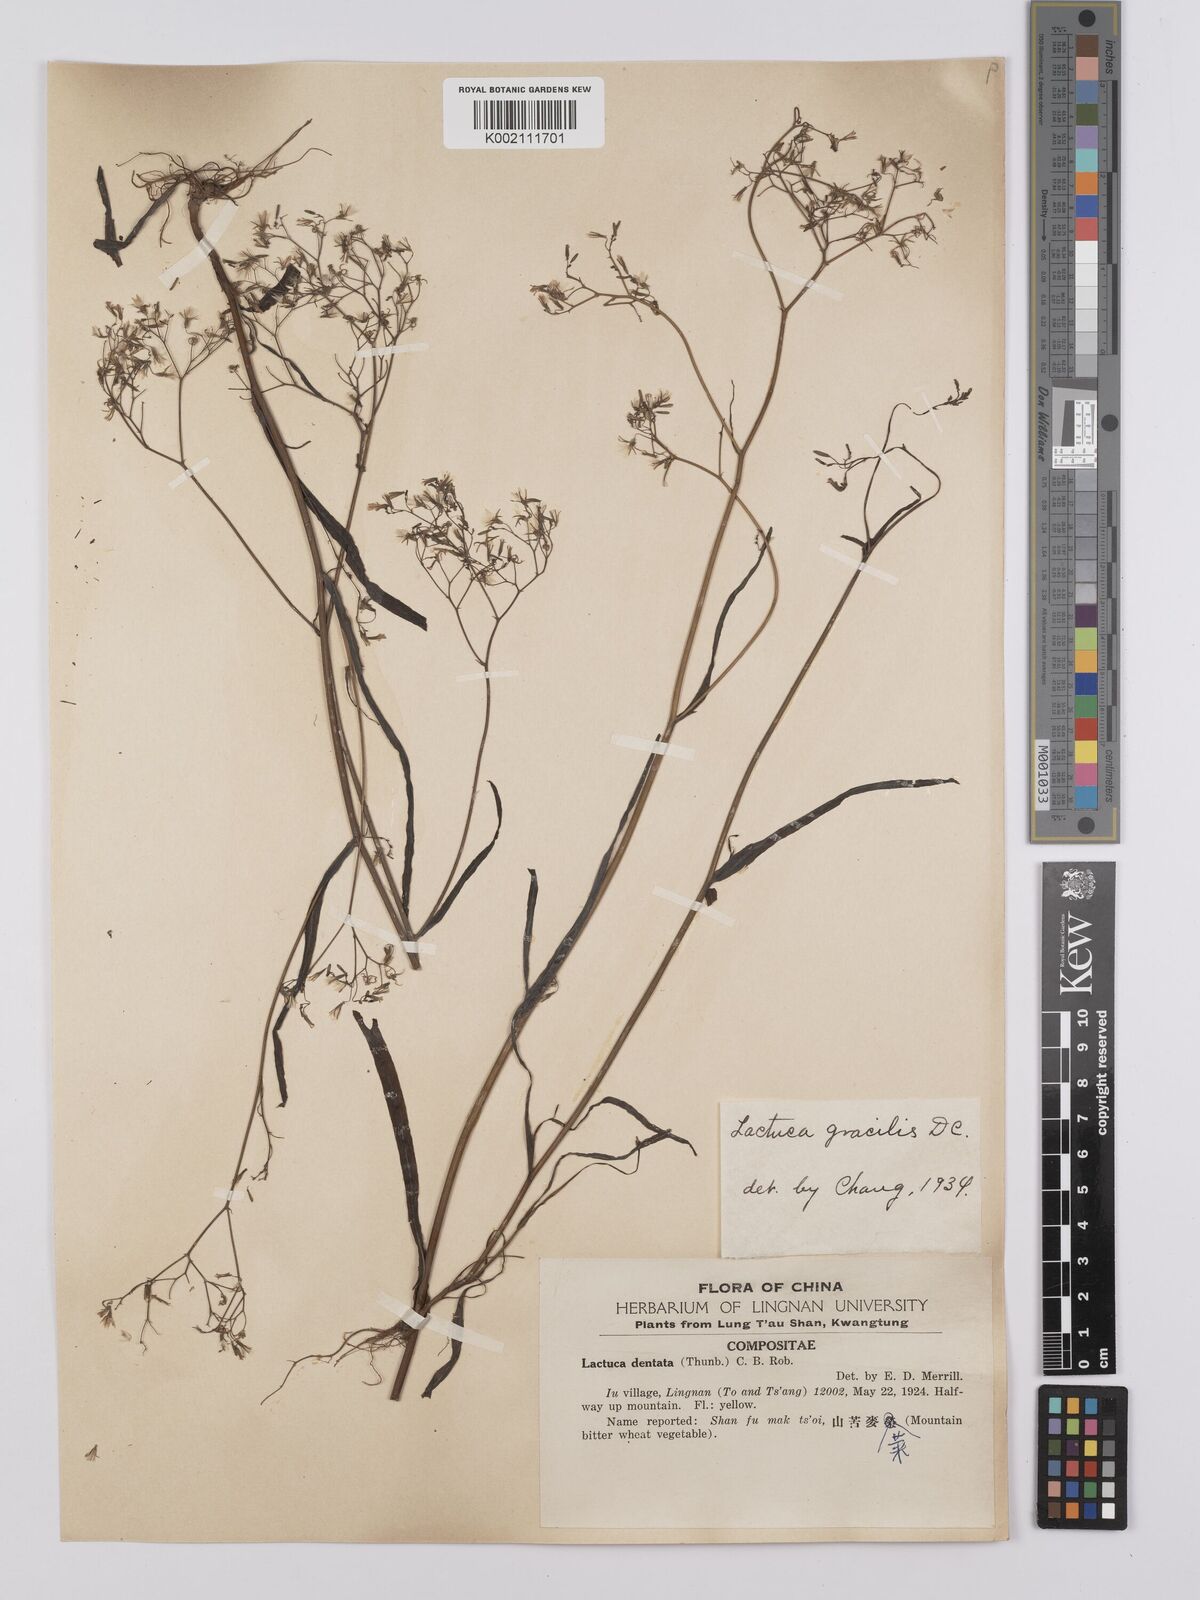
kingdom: Plantae
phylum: Tracheophyta
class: Magnoliopsida
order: Asterales
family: Asteraceae
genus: Ixeridium
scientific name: Ixeridium
